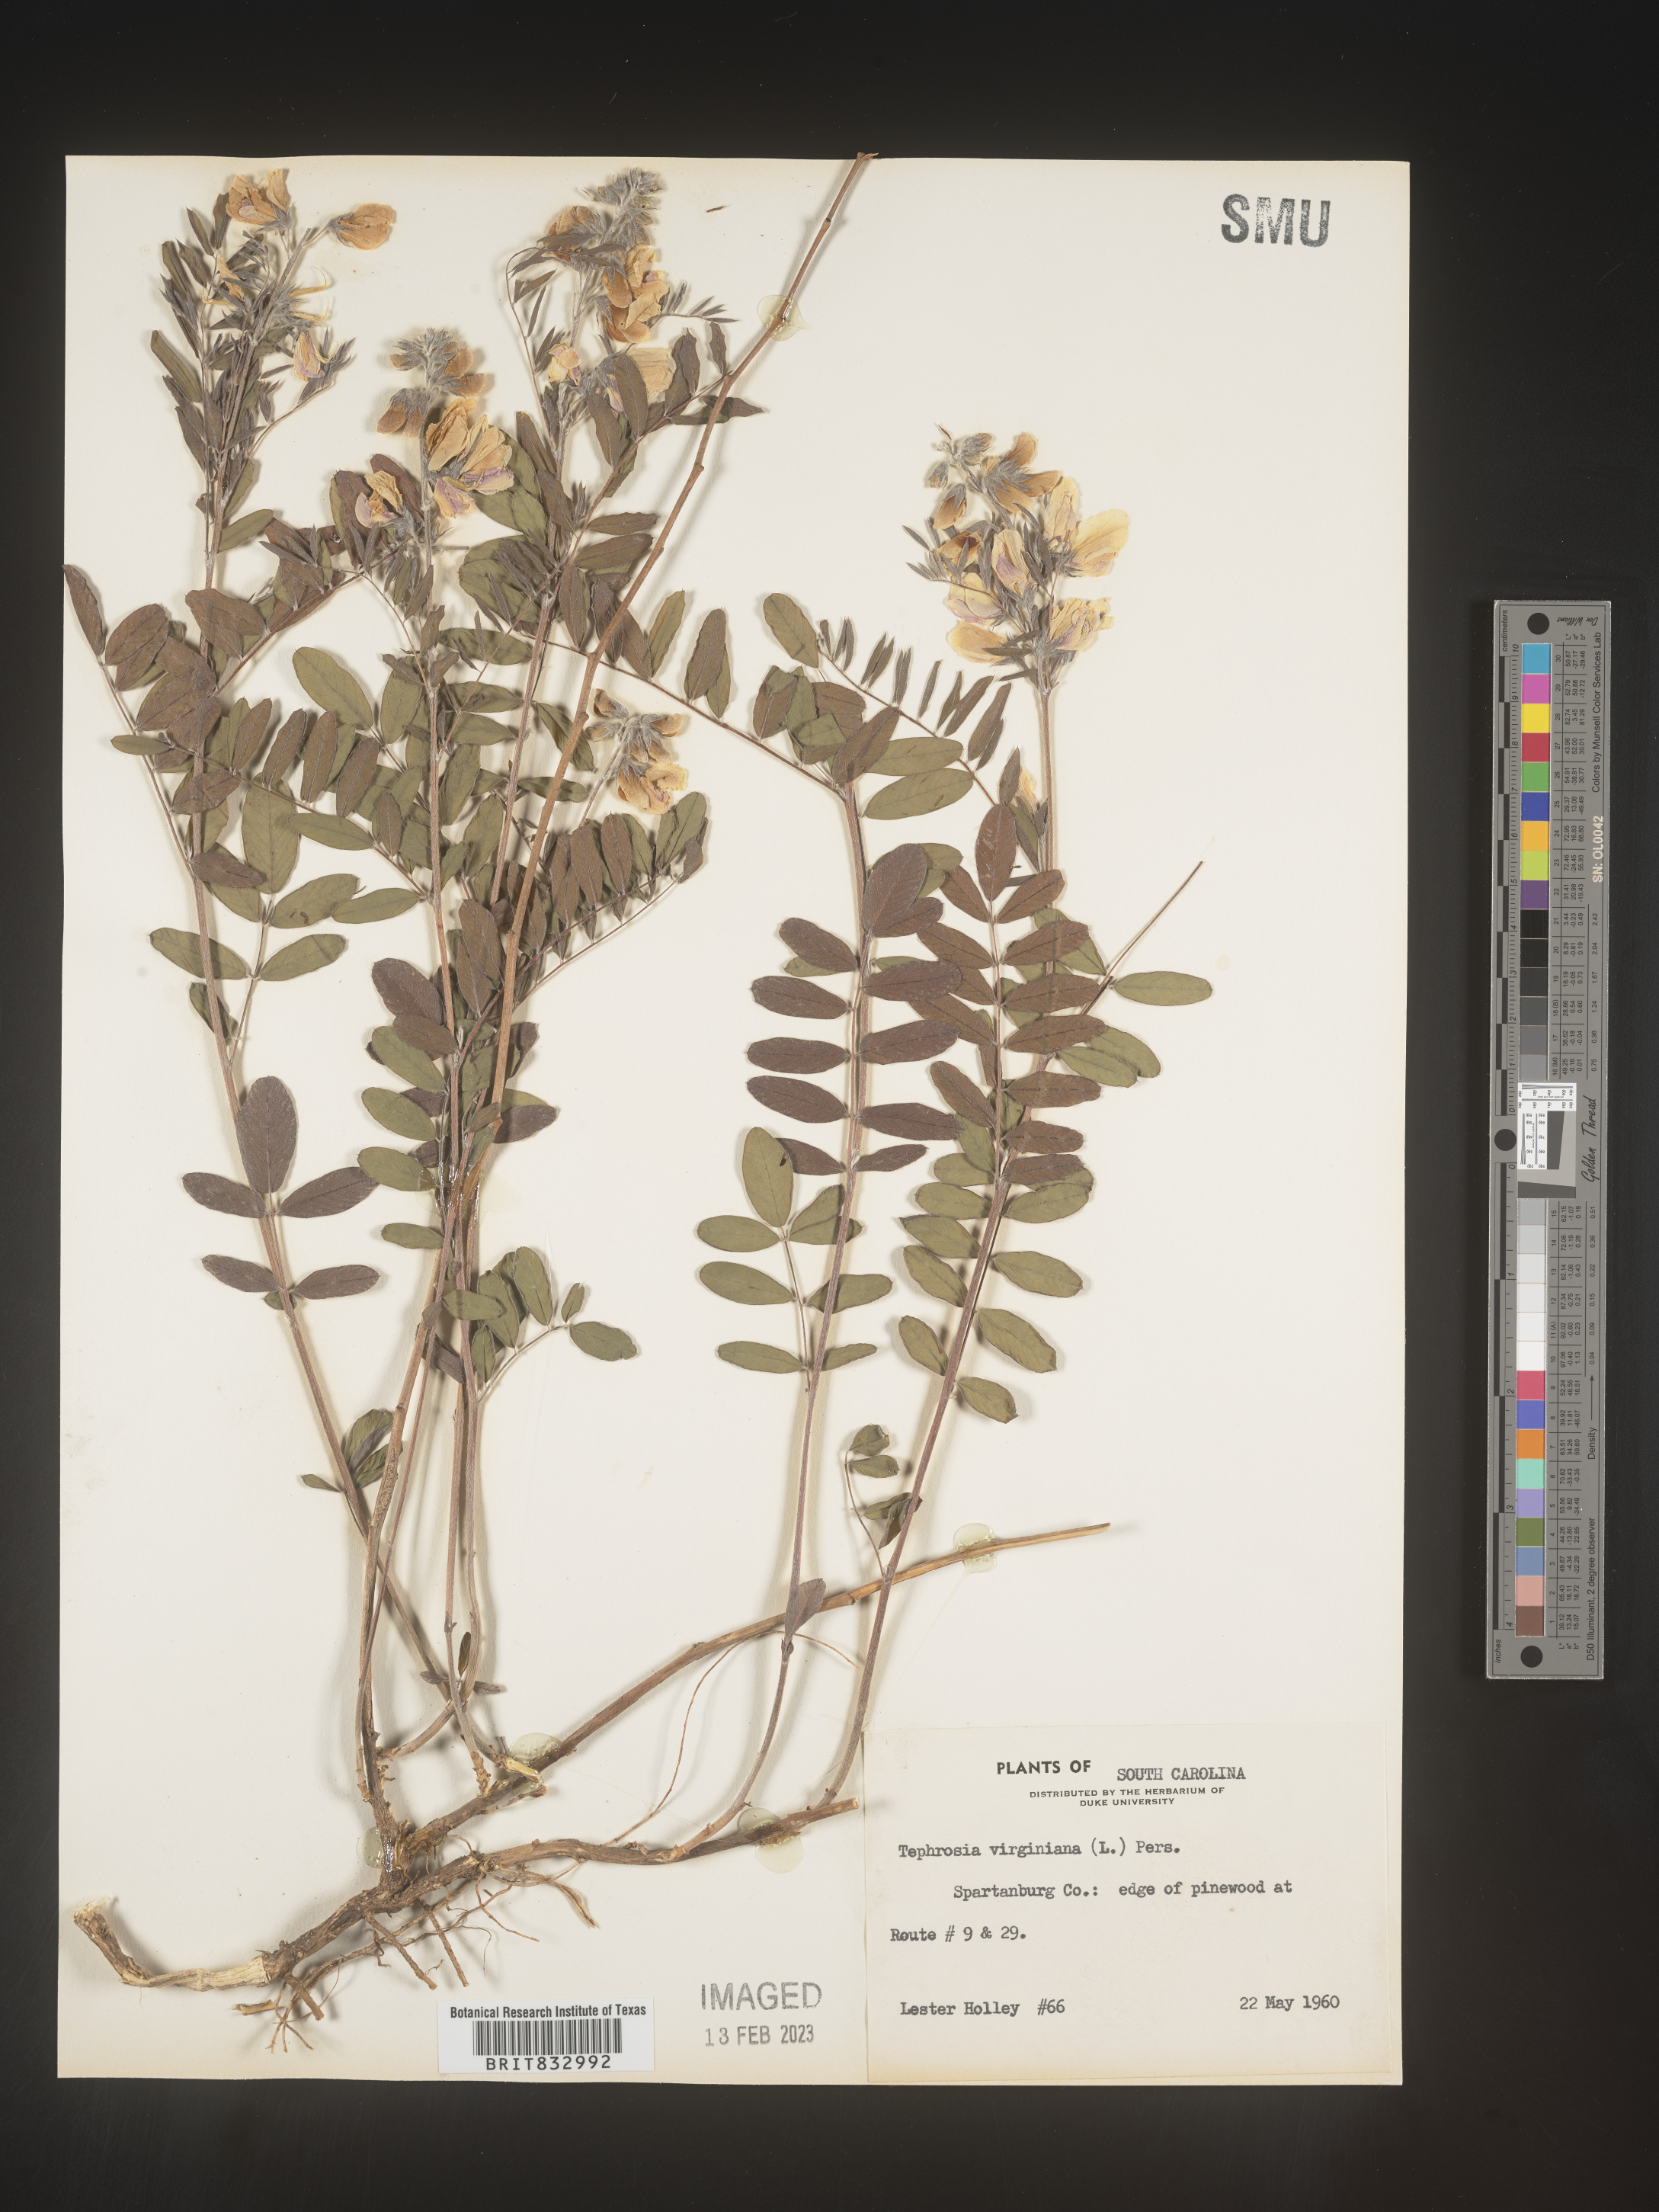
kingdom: Plantae
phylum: Tracheophyta
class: Magnoliopsida
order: Fabales
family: Fabaceae
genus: Tephrosia
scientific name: Tephrosia virginiana
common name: Rabbit-pea
